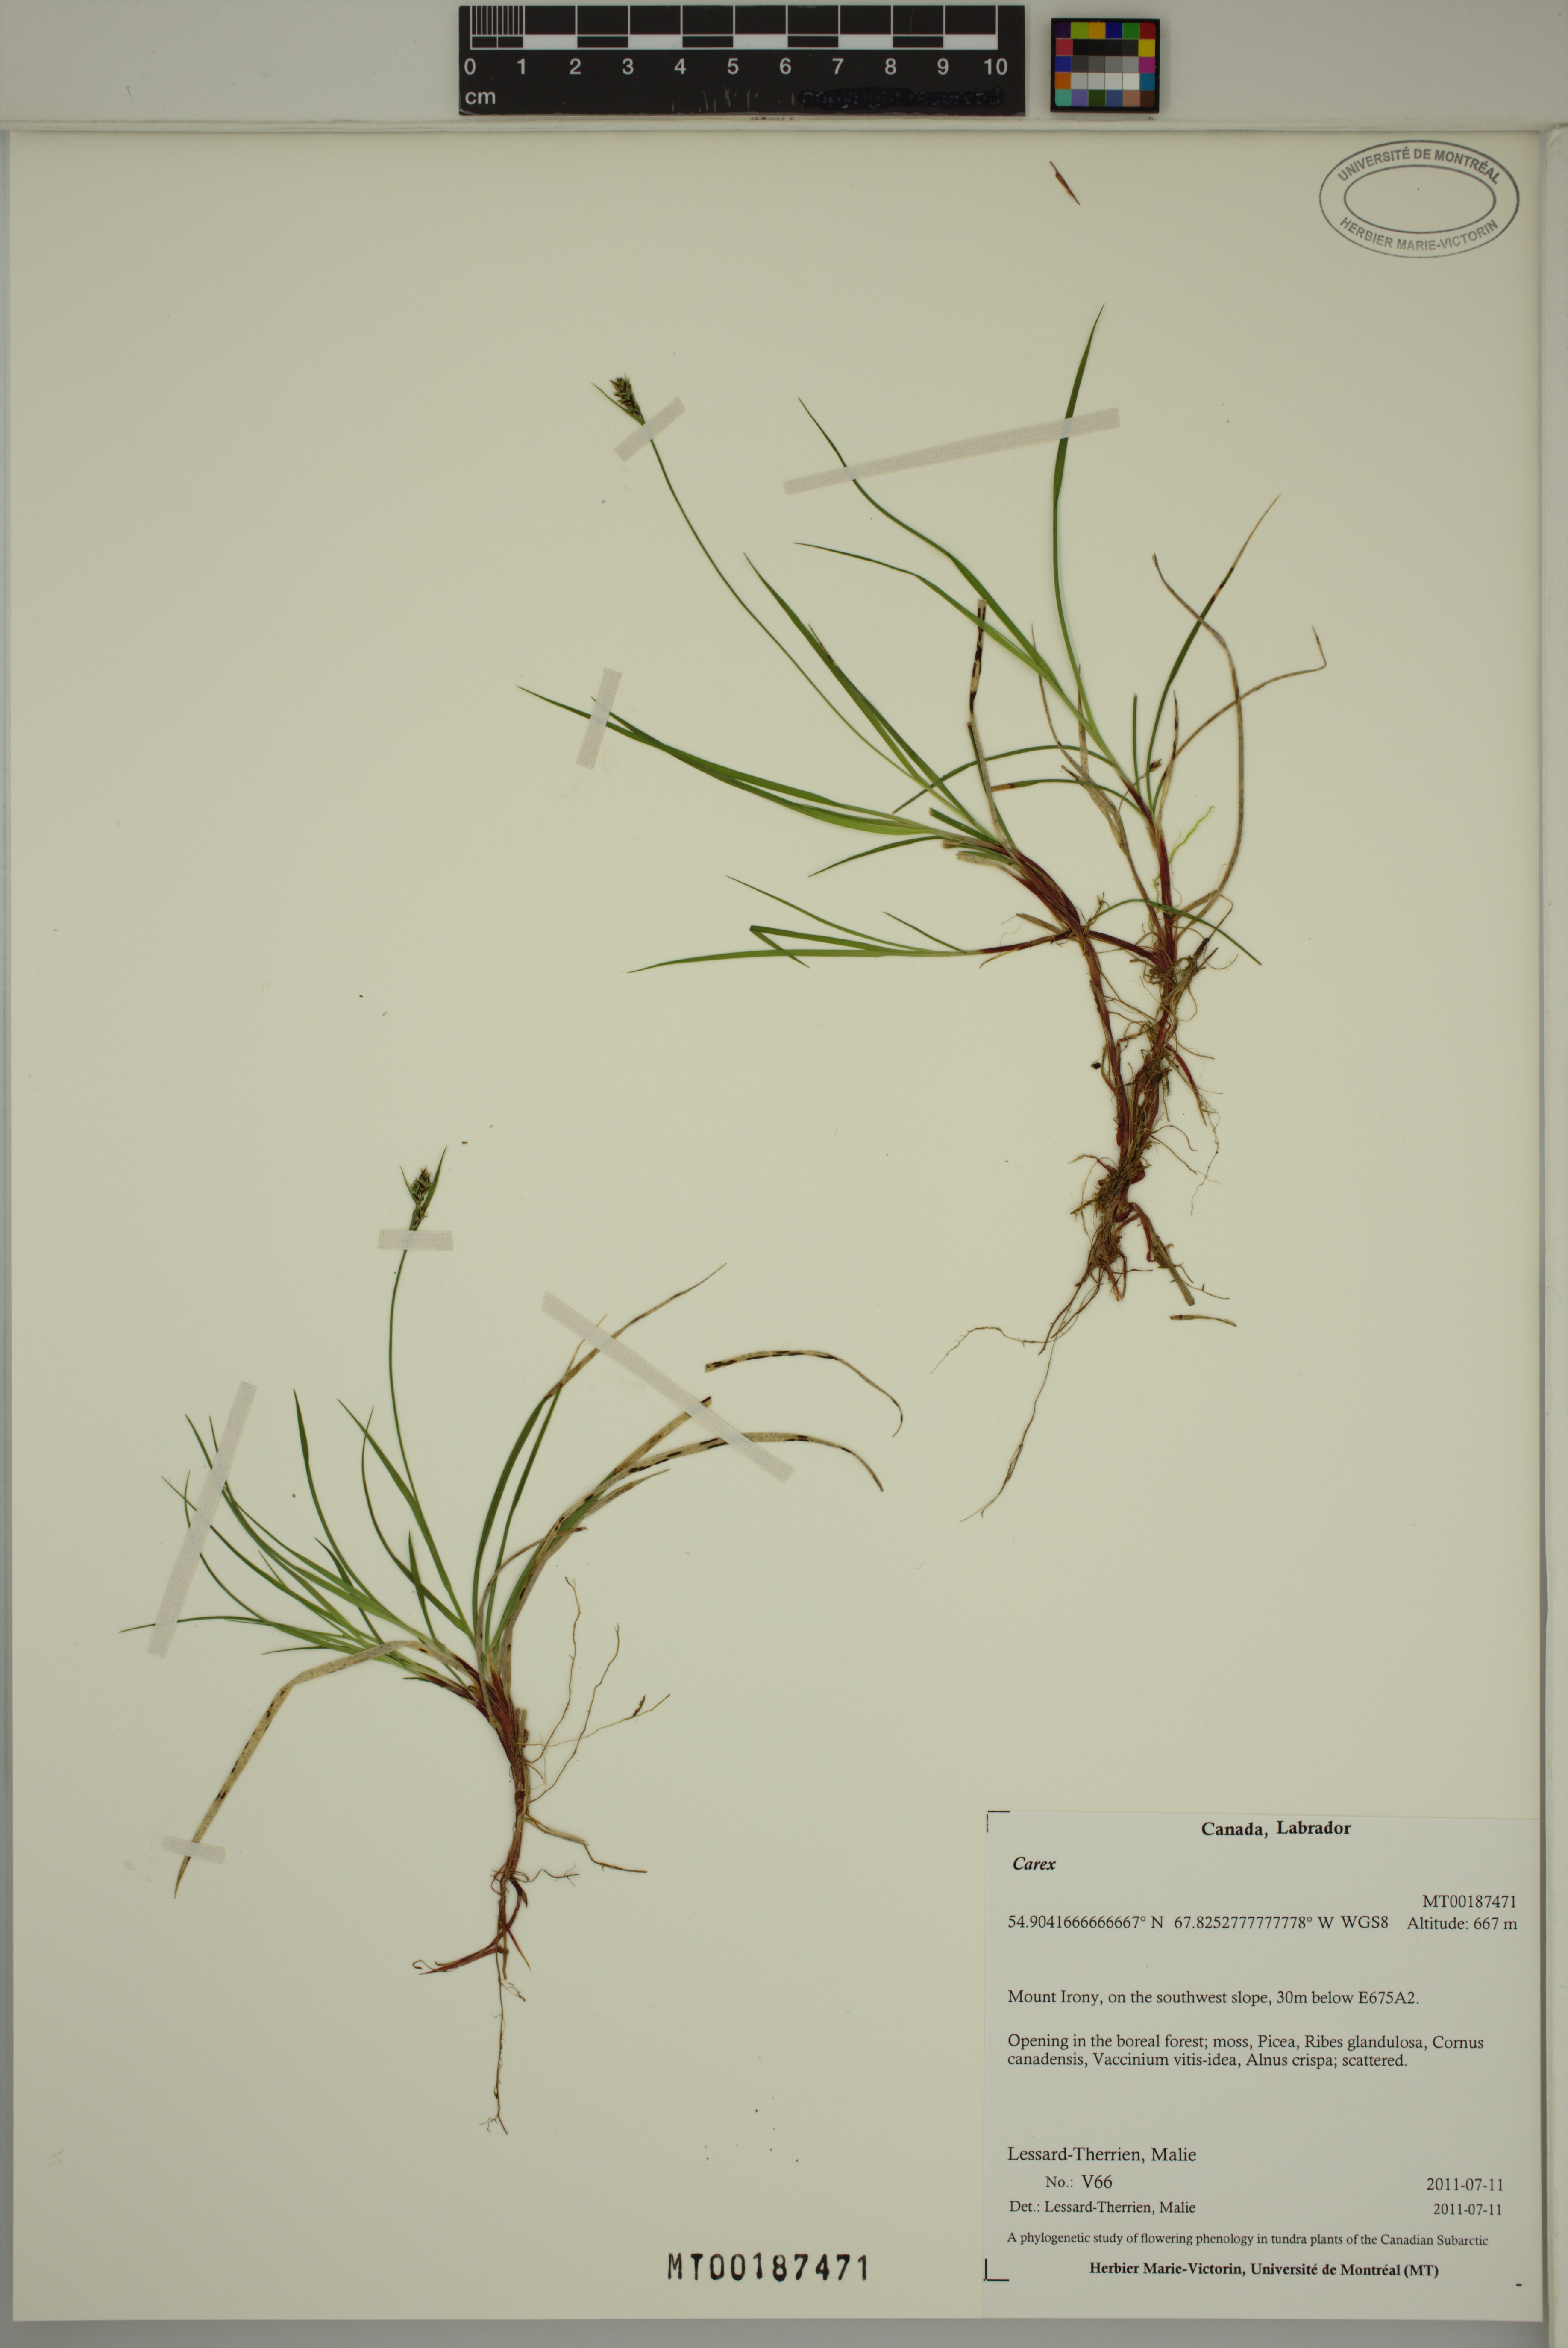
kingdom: Plantae
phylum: Tracheophyta
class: Liliopsida
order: Poales
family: Cyperaceae
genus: Carex
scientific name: Carex
